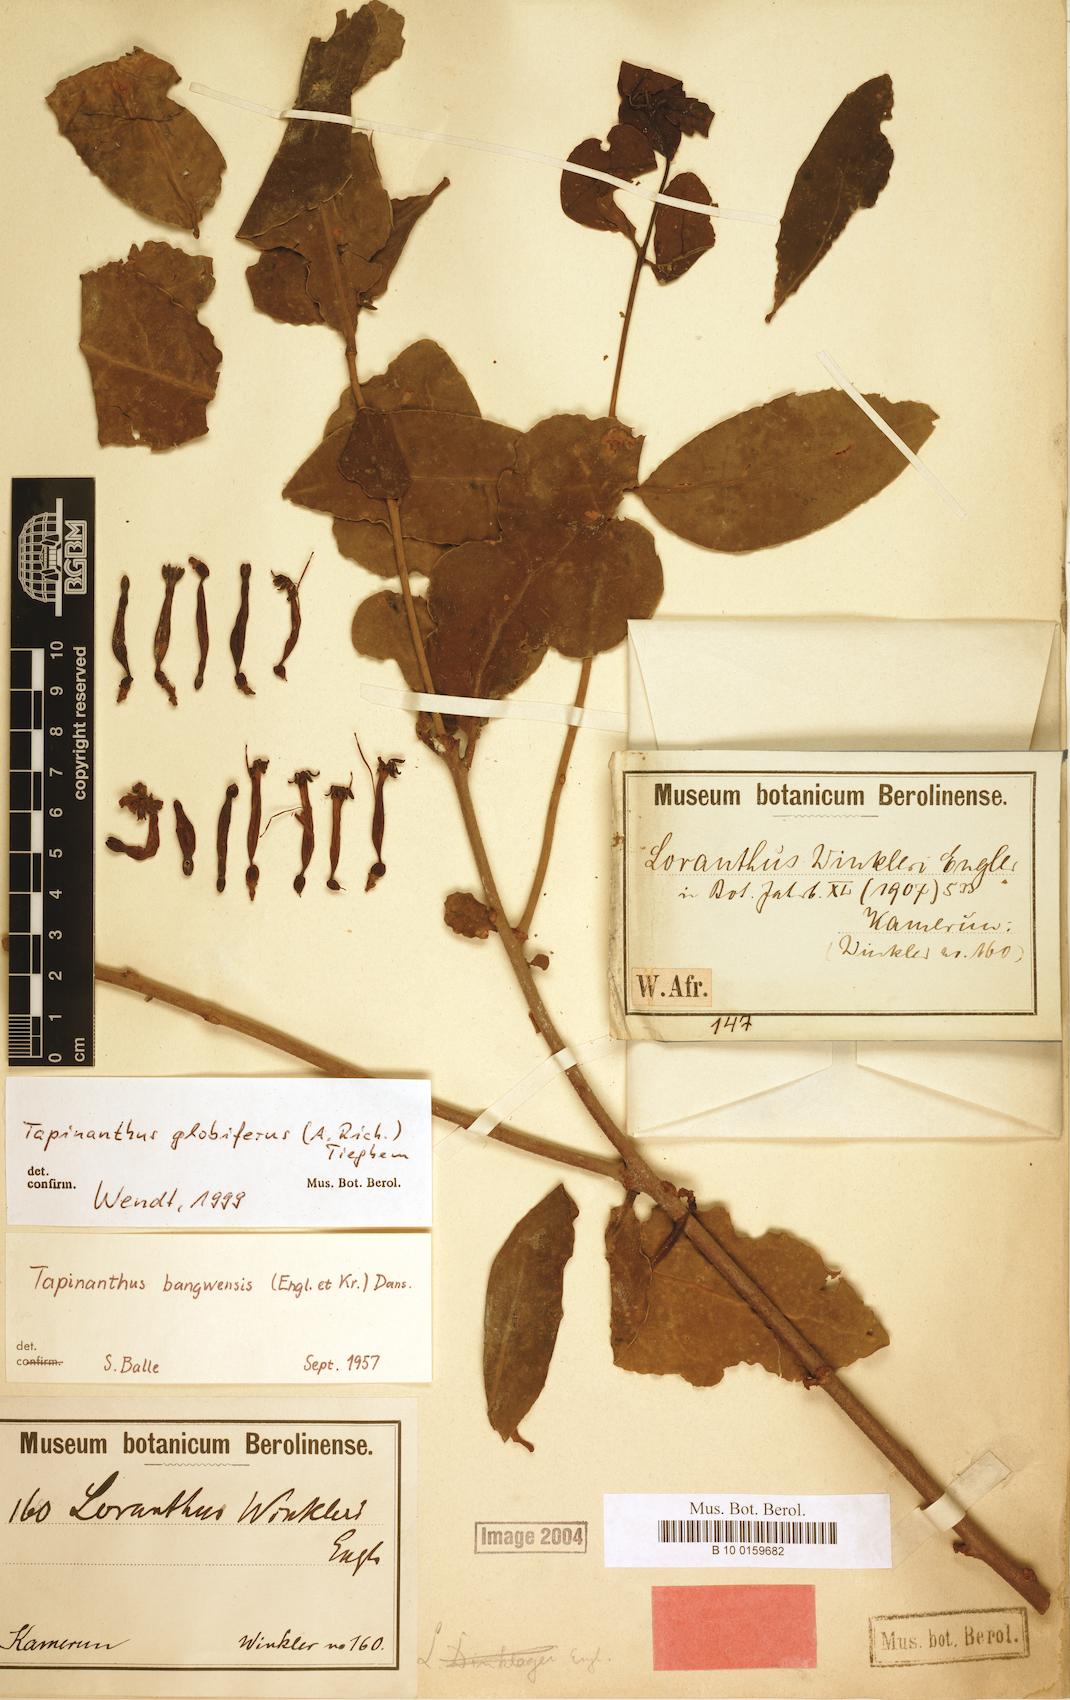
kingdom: Plantae
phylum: Tracheophyta
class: Magnoliopsida
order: Santalales
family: Loranthaceae
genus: Tapinanthus
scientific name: Tapinanthus globiferus
